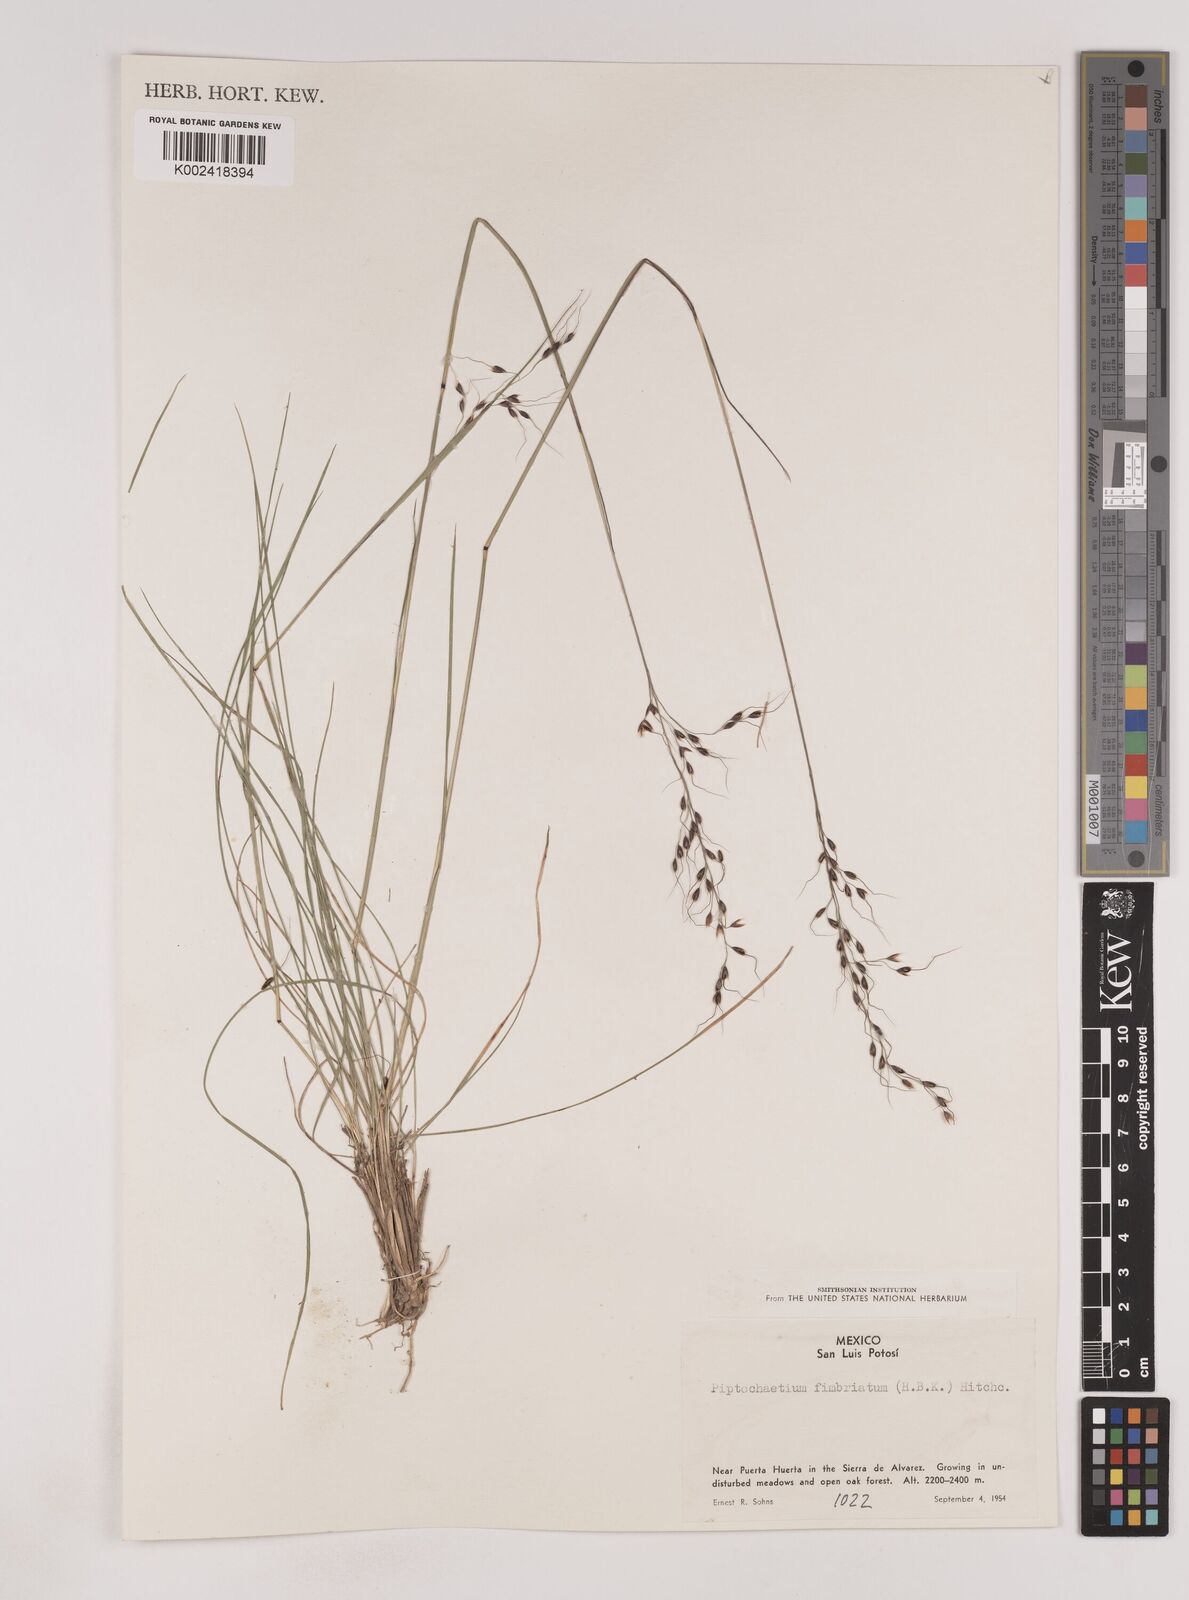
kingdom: Plantae
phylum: Tracheophyta
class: Liliopsida
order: Poales
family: Poaceae
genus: Piptochaetium
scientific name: Piptochaetium fimbriatum
